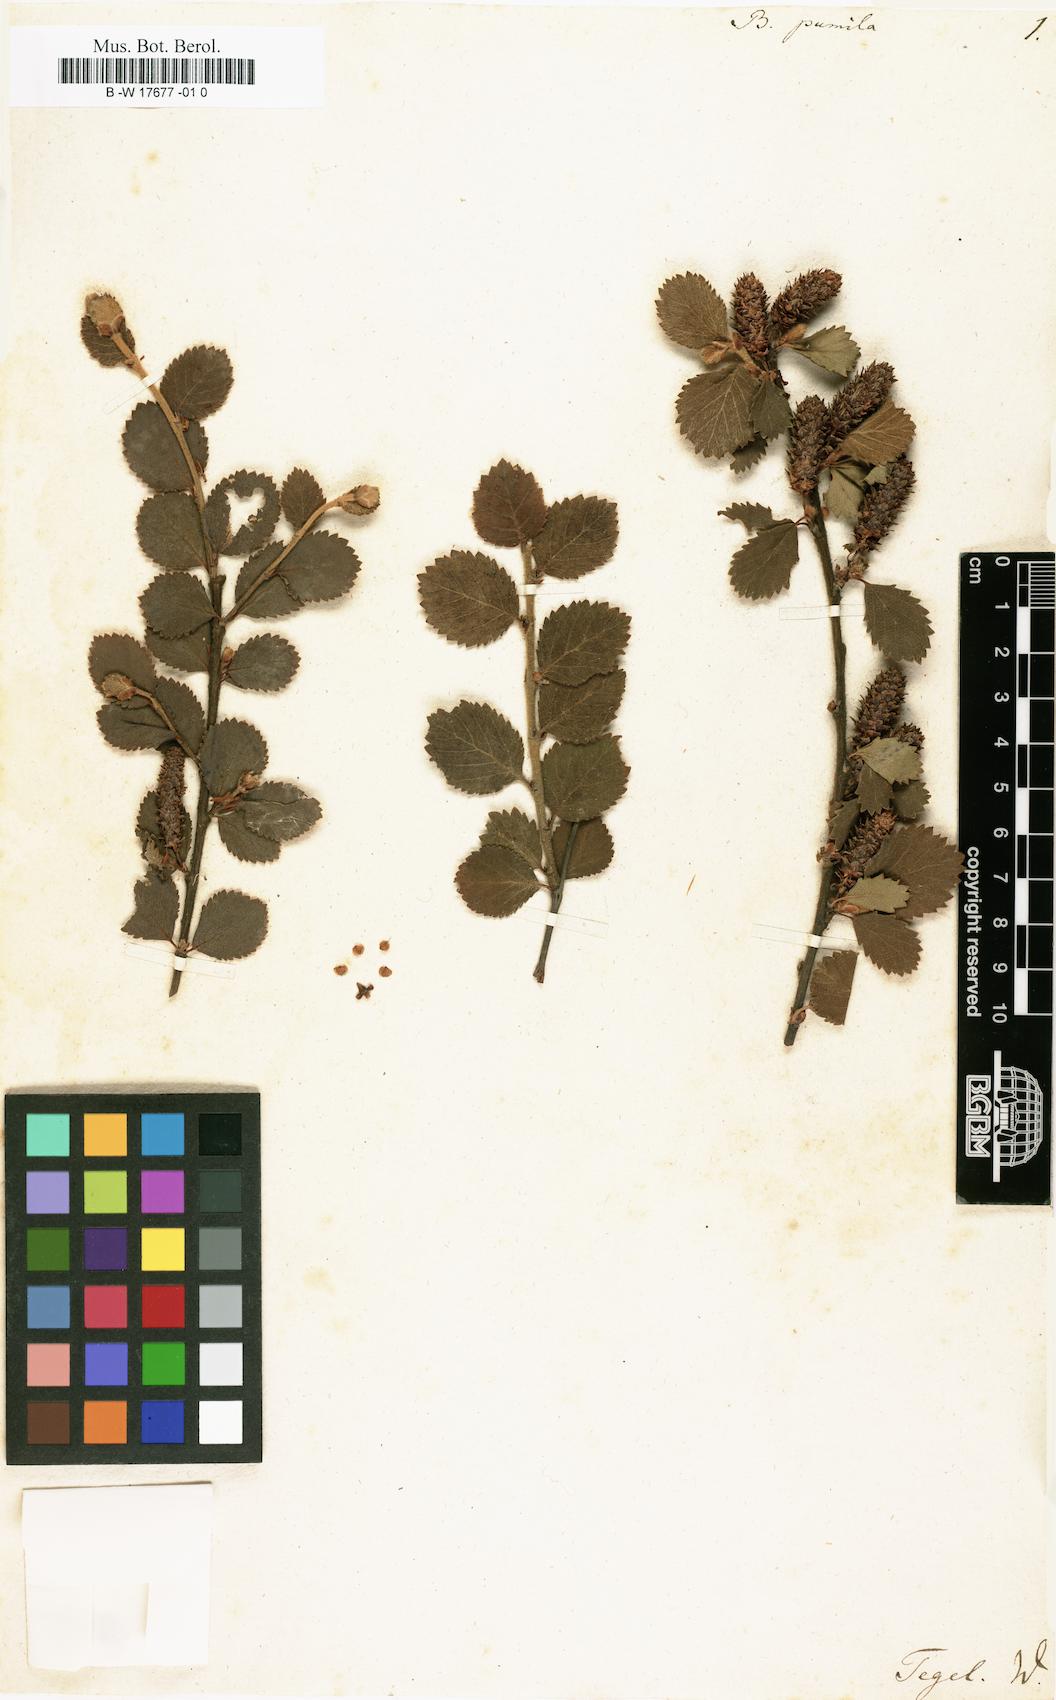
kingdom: Plantae
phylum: Tracheophyta
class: Magnoliopsida
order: Fagales
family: Betulaceae
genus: Betula
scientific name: Betula pumila
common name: Bog birch
